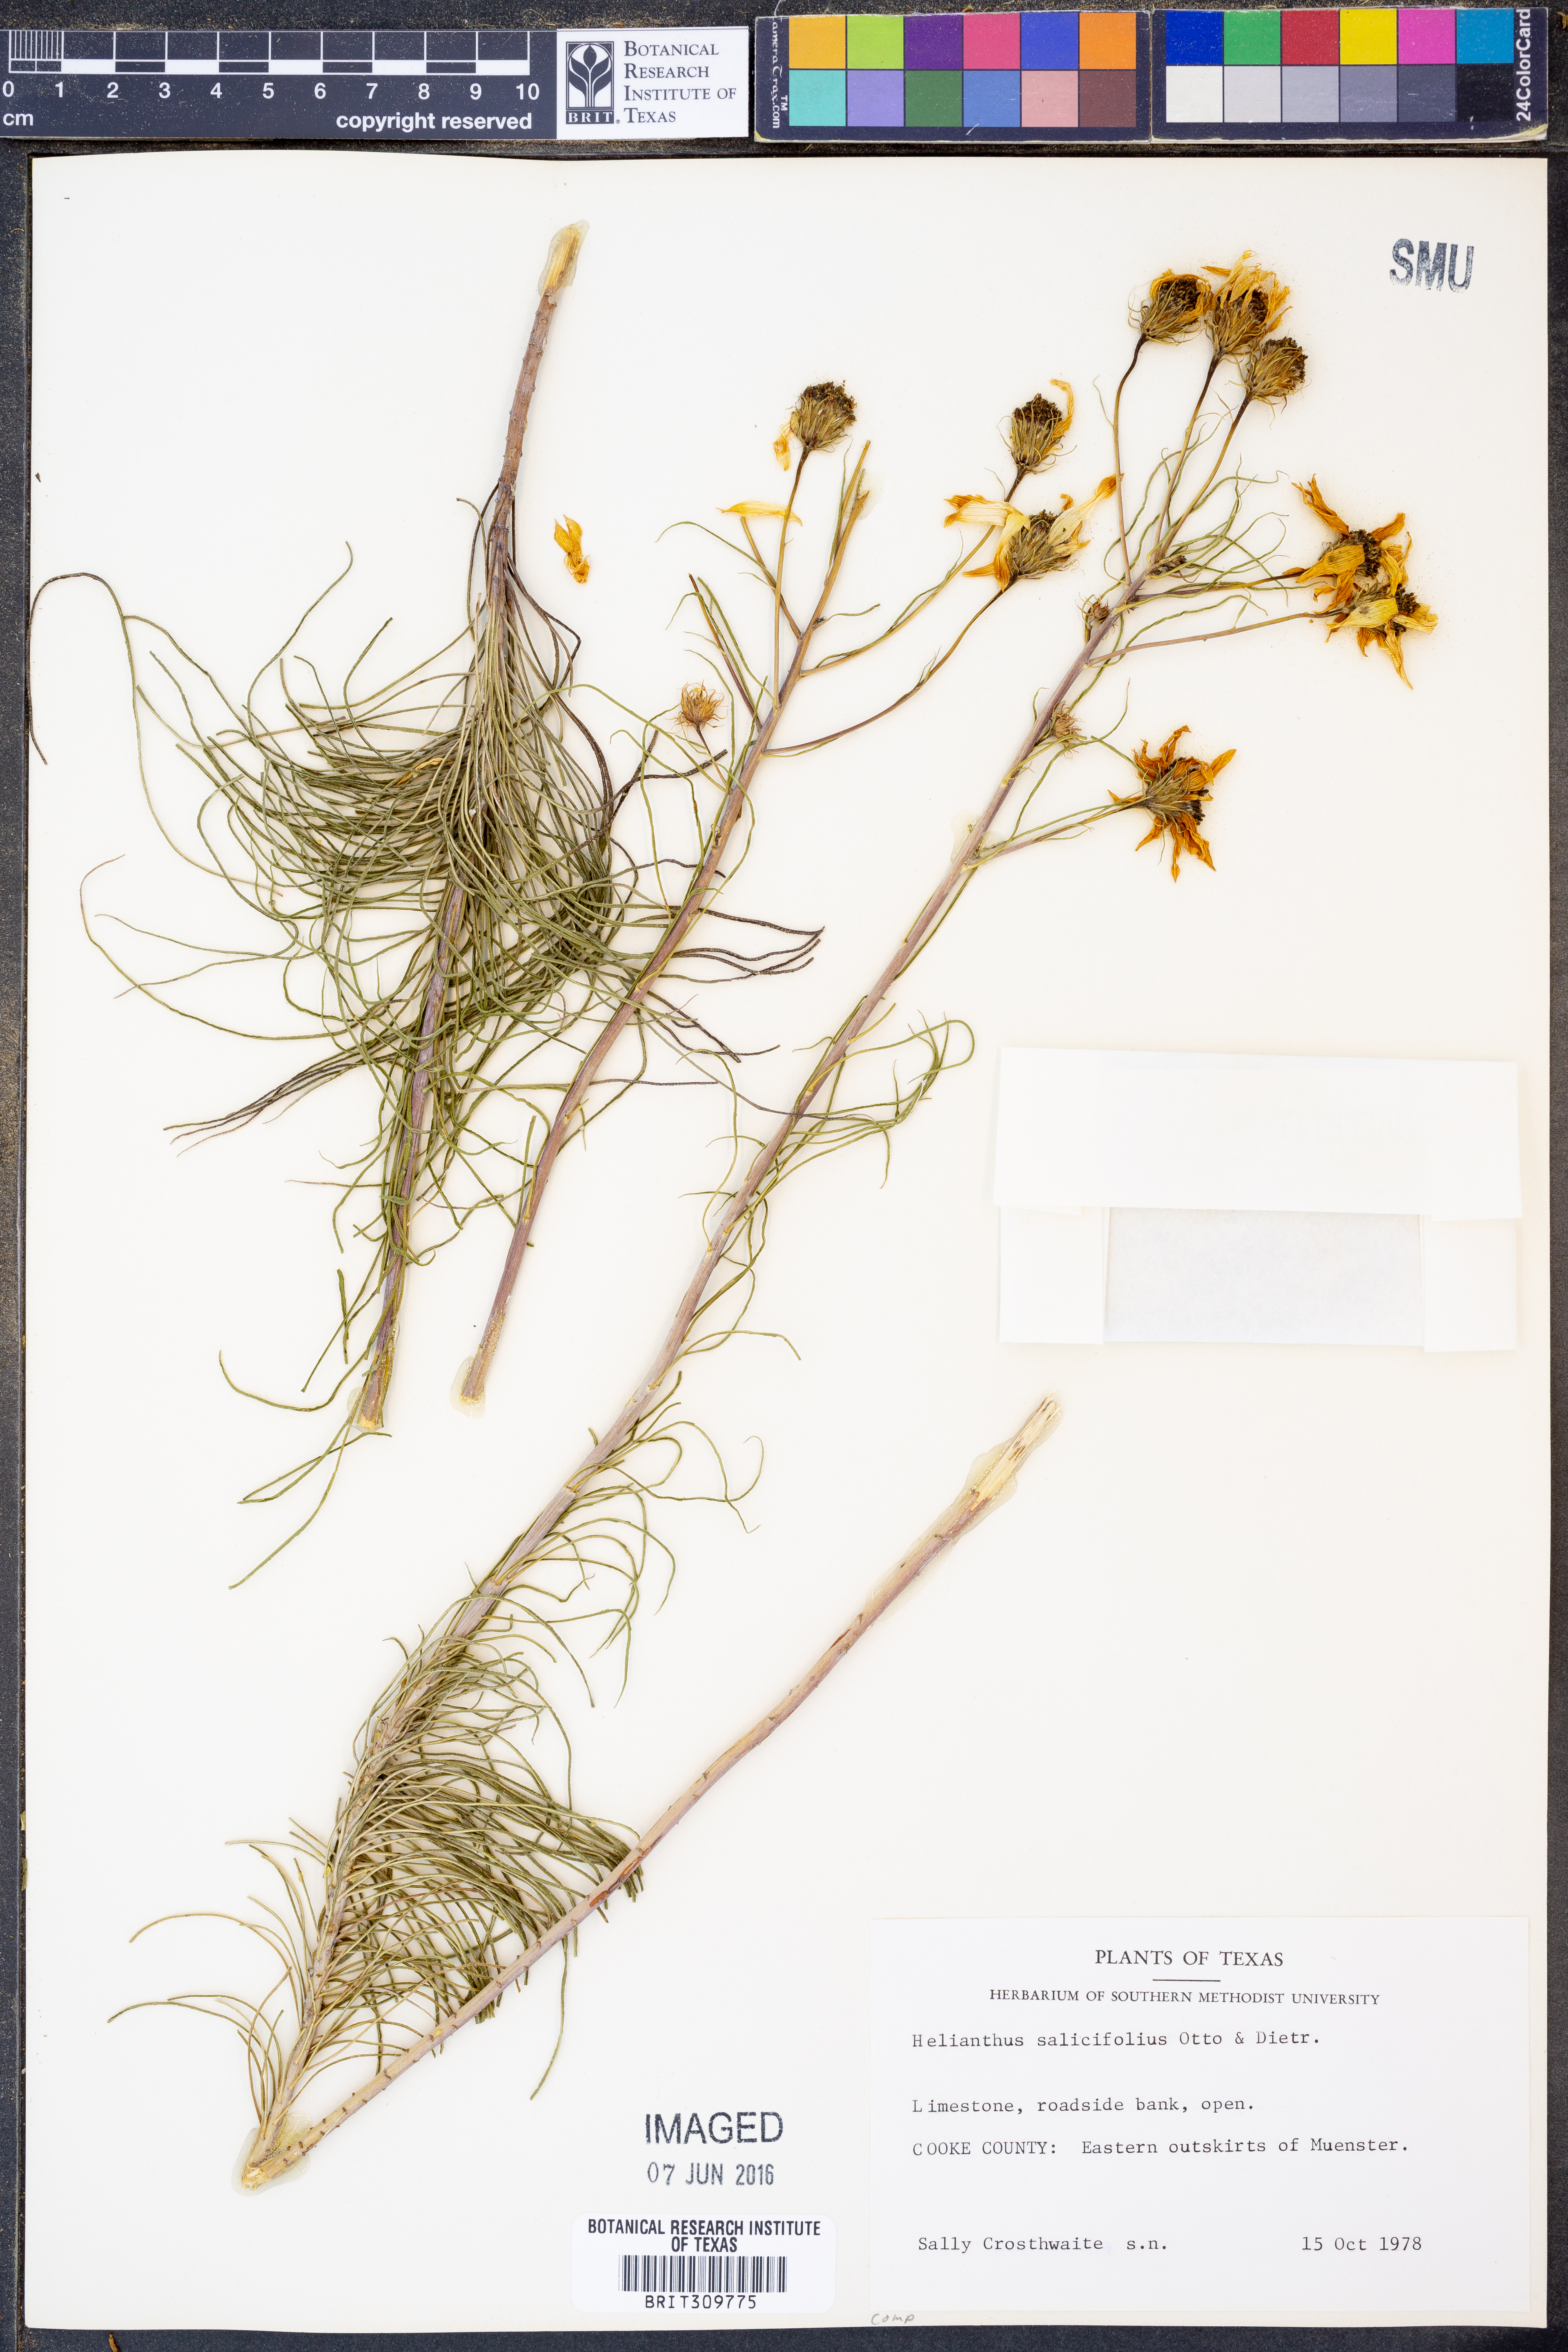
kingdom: Plantae
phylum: Tracheophyta
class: Magnoliopsida
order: Asterales
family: Asteraceae
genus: Helianthus
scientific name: Helianthus salicifolius
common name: Willowleaf sunflower
